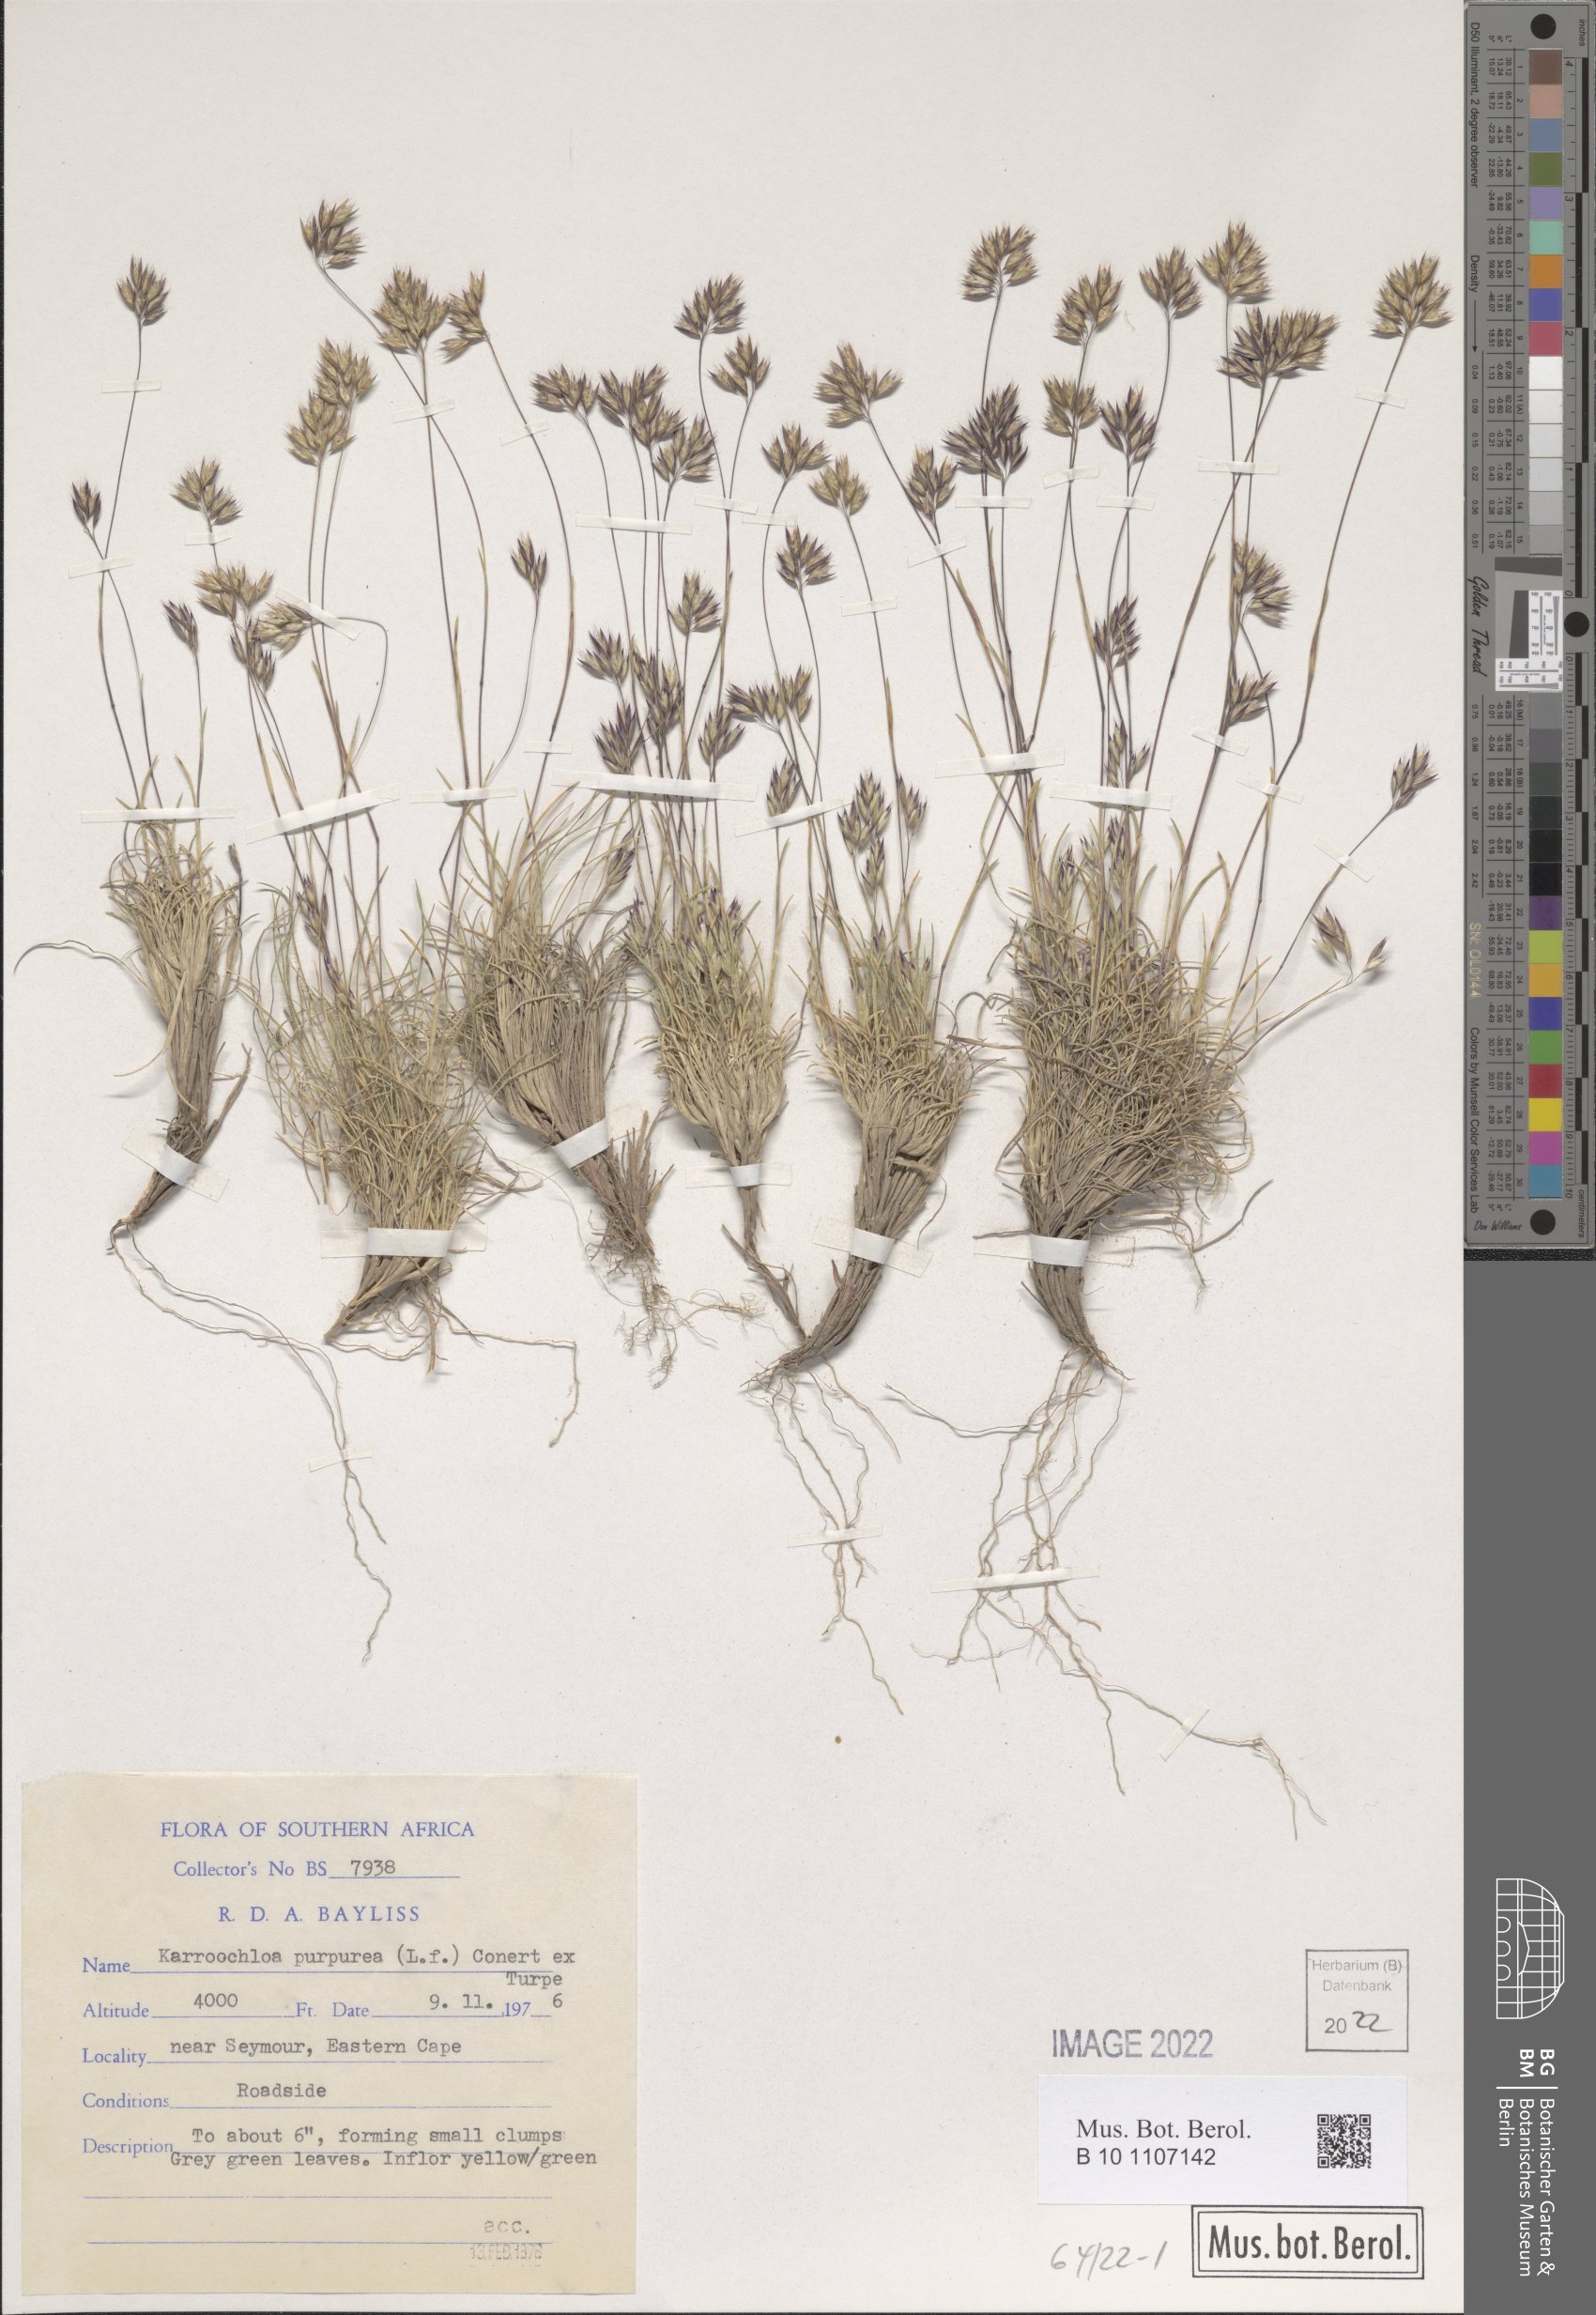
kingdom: Plantae
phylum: Tracheophyta
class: Liliopsida
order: Poales
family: Poaceae
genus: Tribolium
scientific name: Tribolium purpureum
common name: Grass
